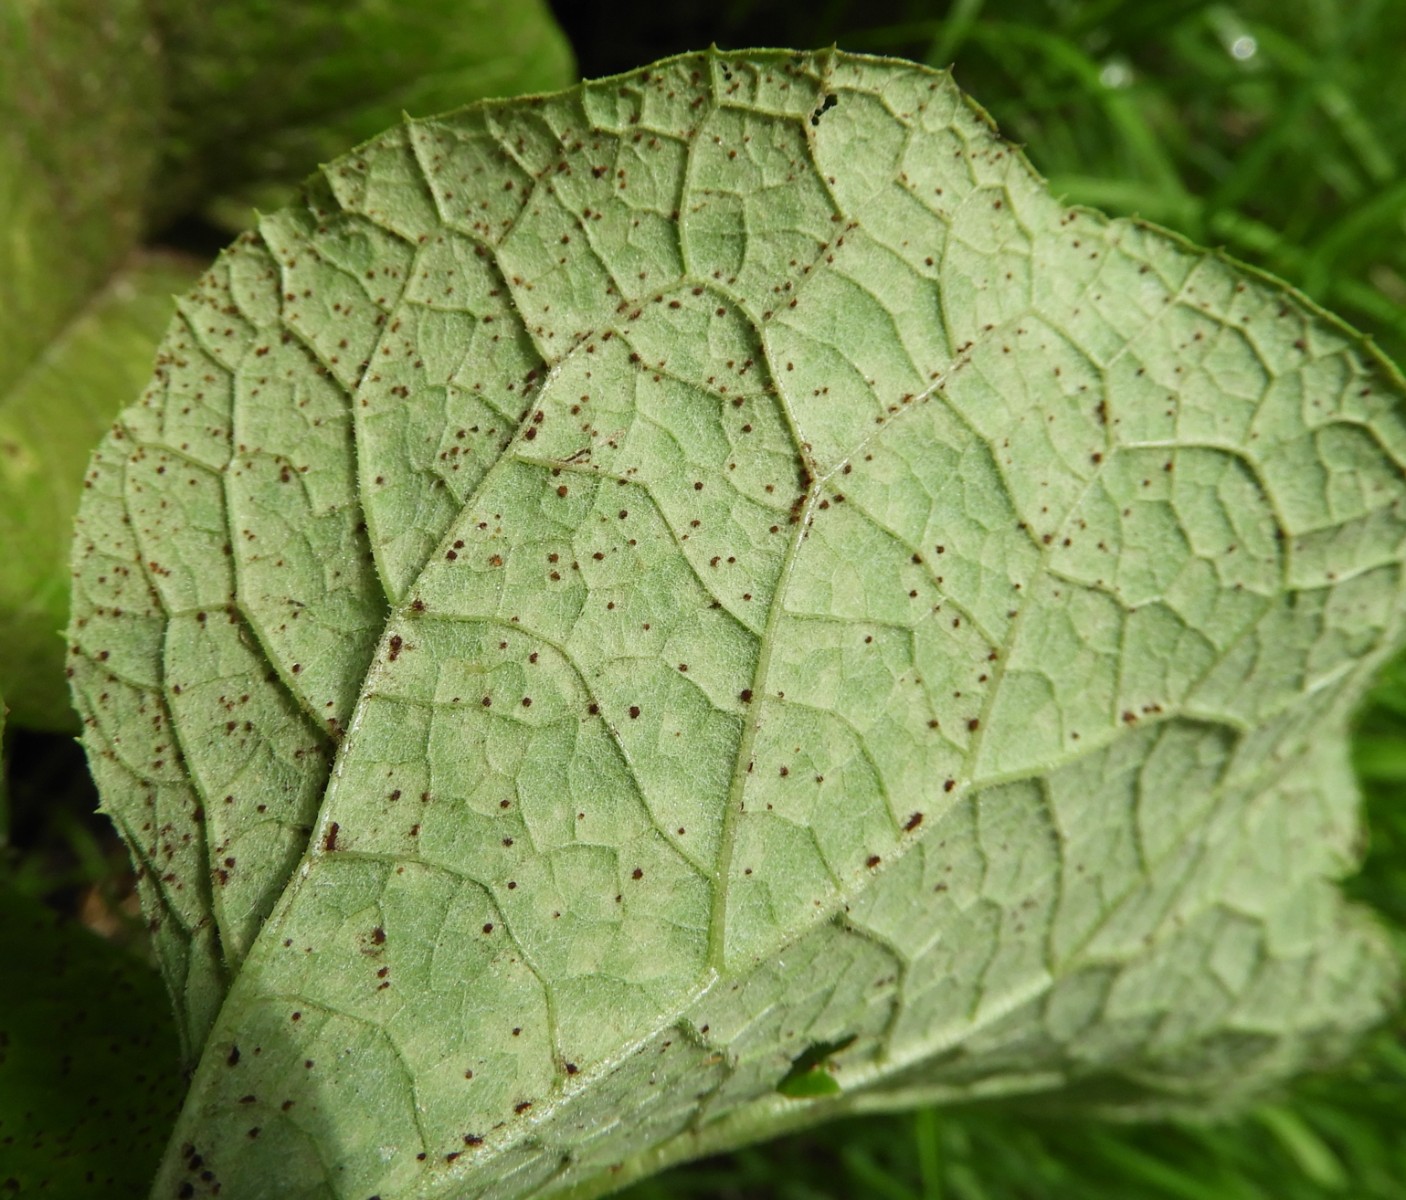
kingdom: Fungi
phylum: Basidiomycota
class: Pucciniomycetes
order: Pucciniales
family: Pucciniaceae
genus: Puccinia
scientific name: Puccinia calcitrapae
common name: Rust fungus
